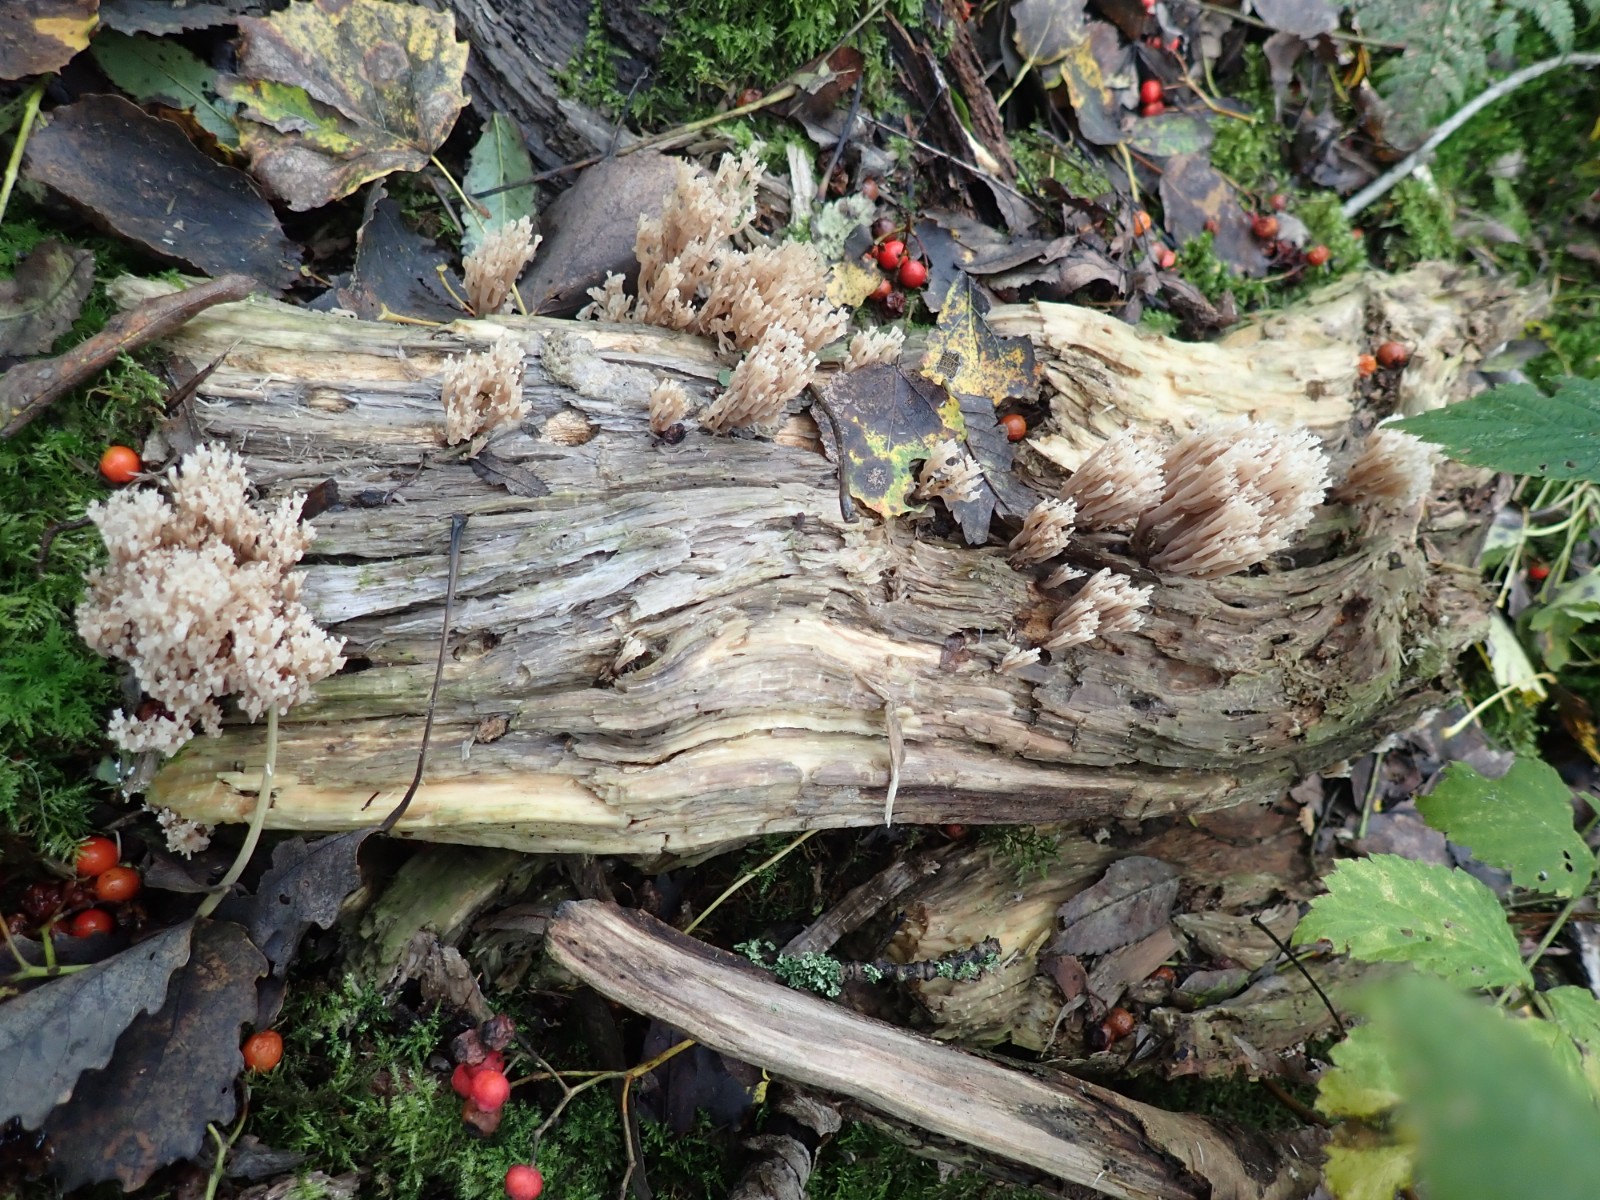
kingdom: Fungi
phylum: Basidiomycota
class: Agaricomycetes
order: Russulales
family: Auriscalpiaceae
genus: Artomyces
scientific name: Artomyces pyxidatus
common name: kandelabersvamp
